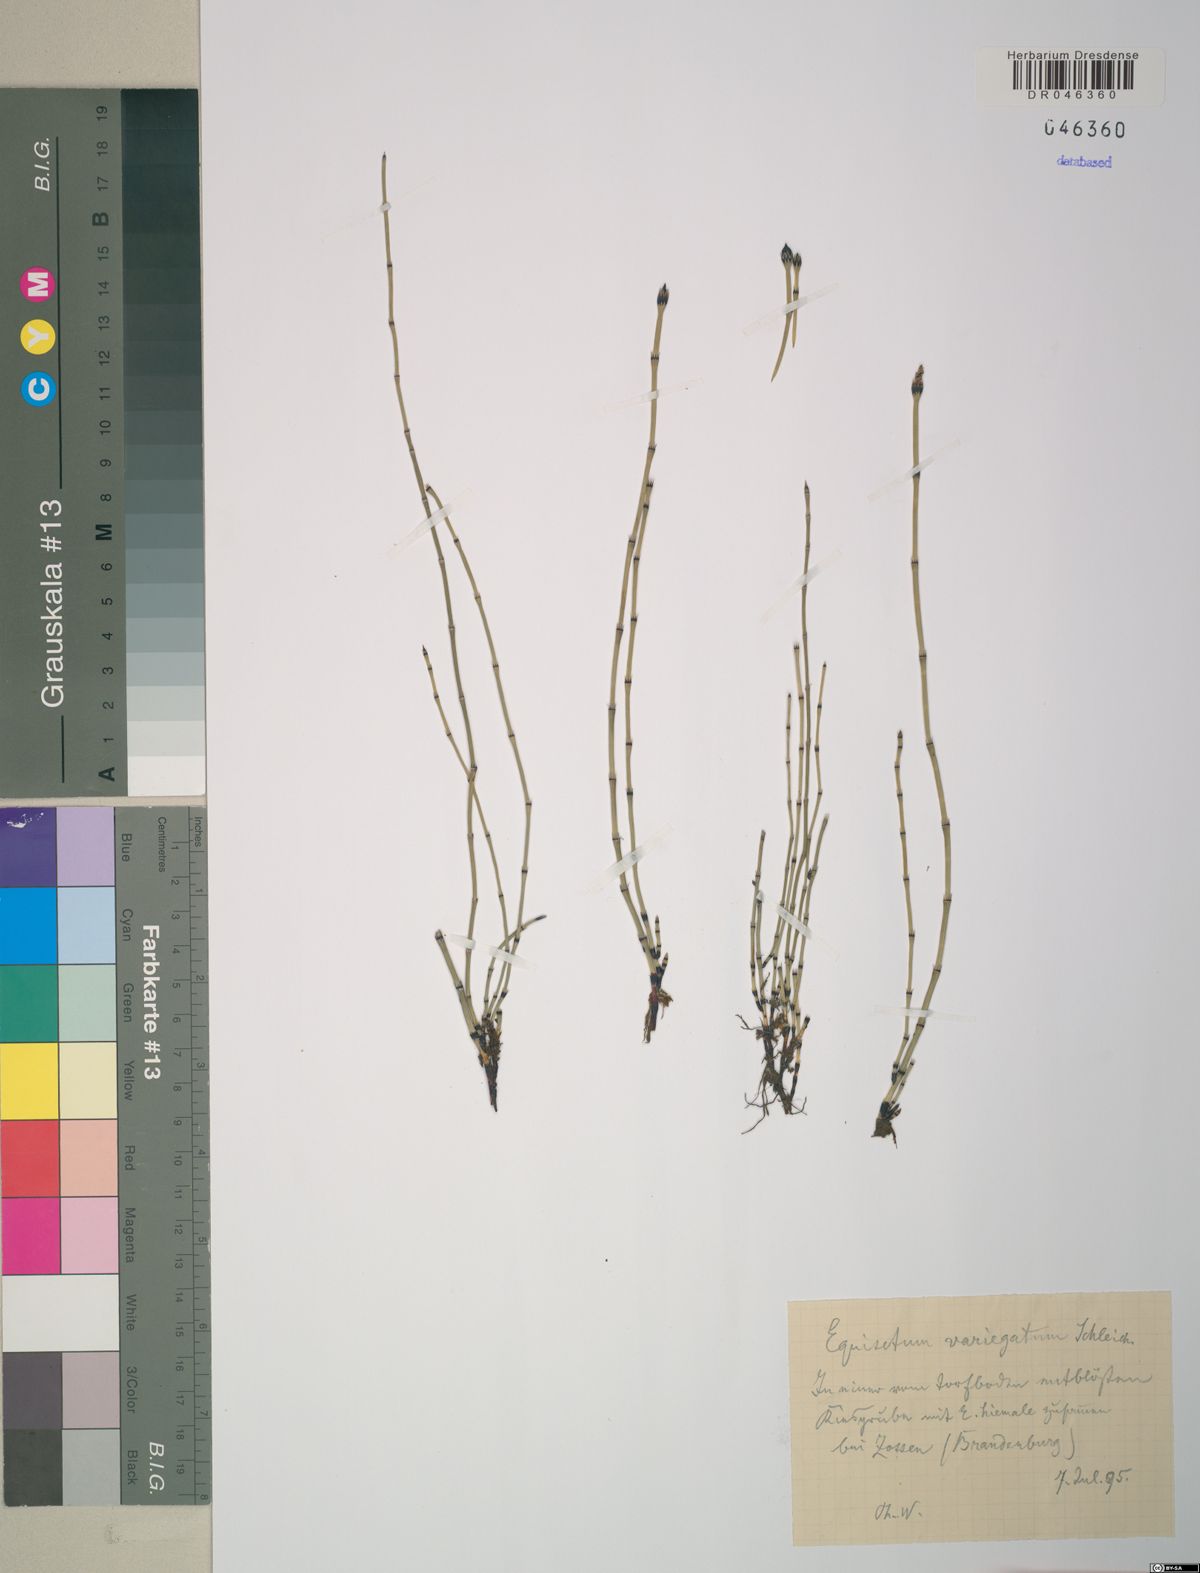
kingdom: Plantae
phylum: Tracheophyta
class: Polypodiopsida
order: Equisetales
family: Equisetaceae
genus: Equisetum
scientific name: Equisetum variegatum
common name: Variegated horsetail
